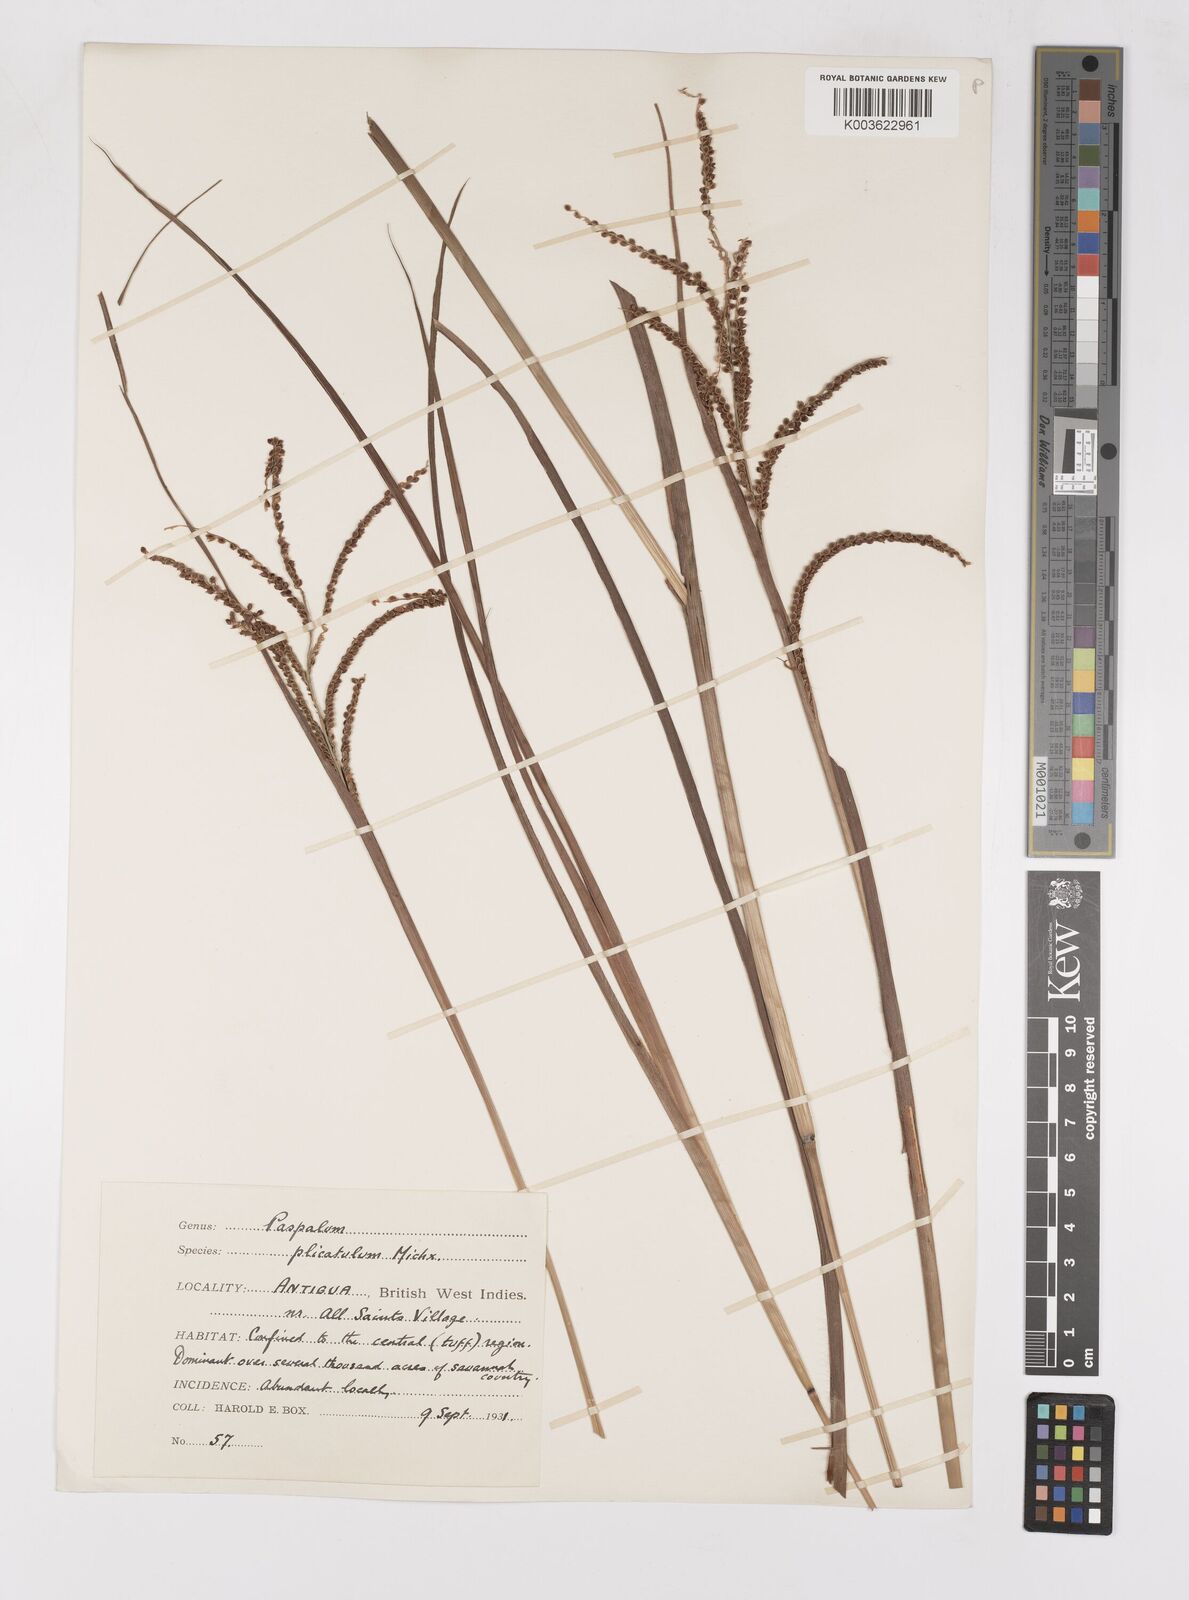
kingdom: Plantae
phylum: Tracheophyta
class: Liliopsida
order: Poales
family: Poaceae
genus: Paspalum
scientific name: Paspalum plicatulum
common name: Top paspalum
